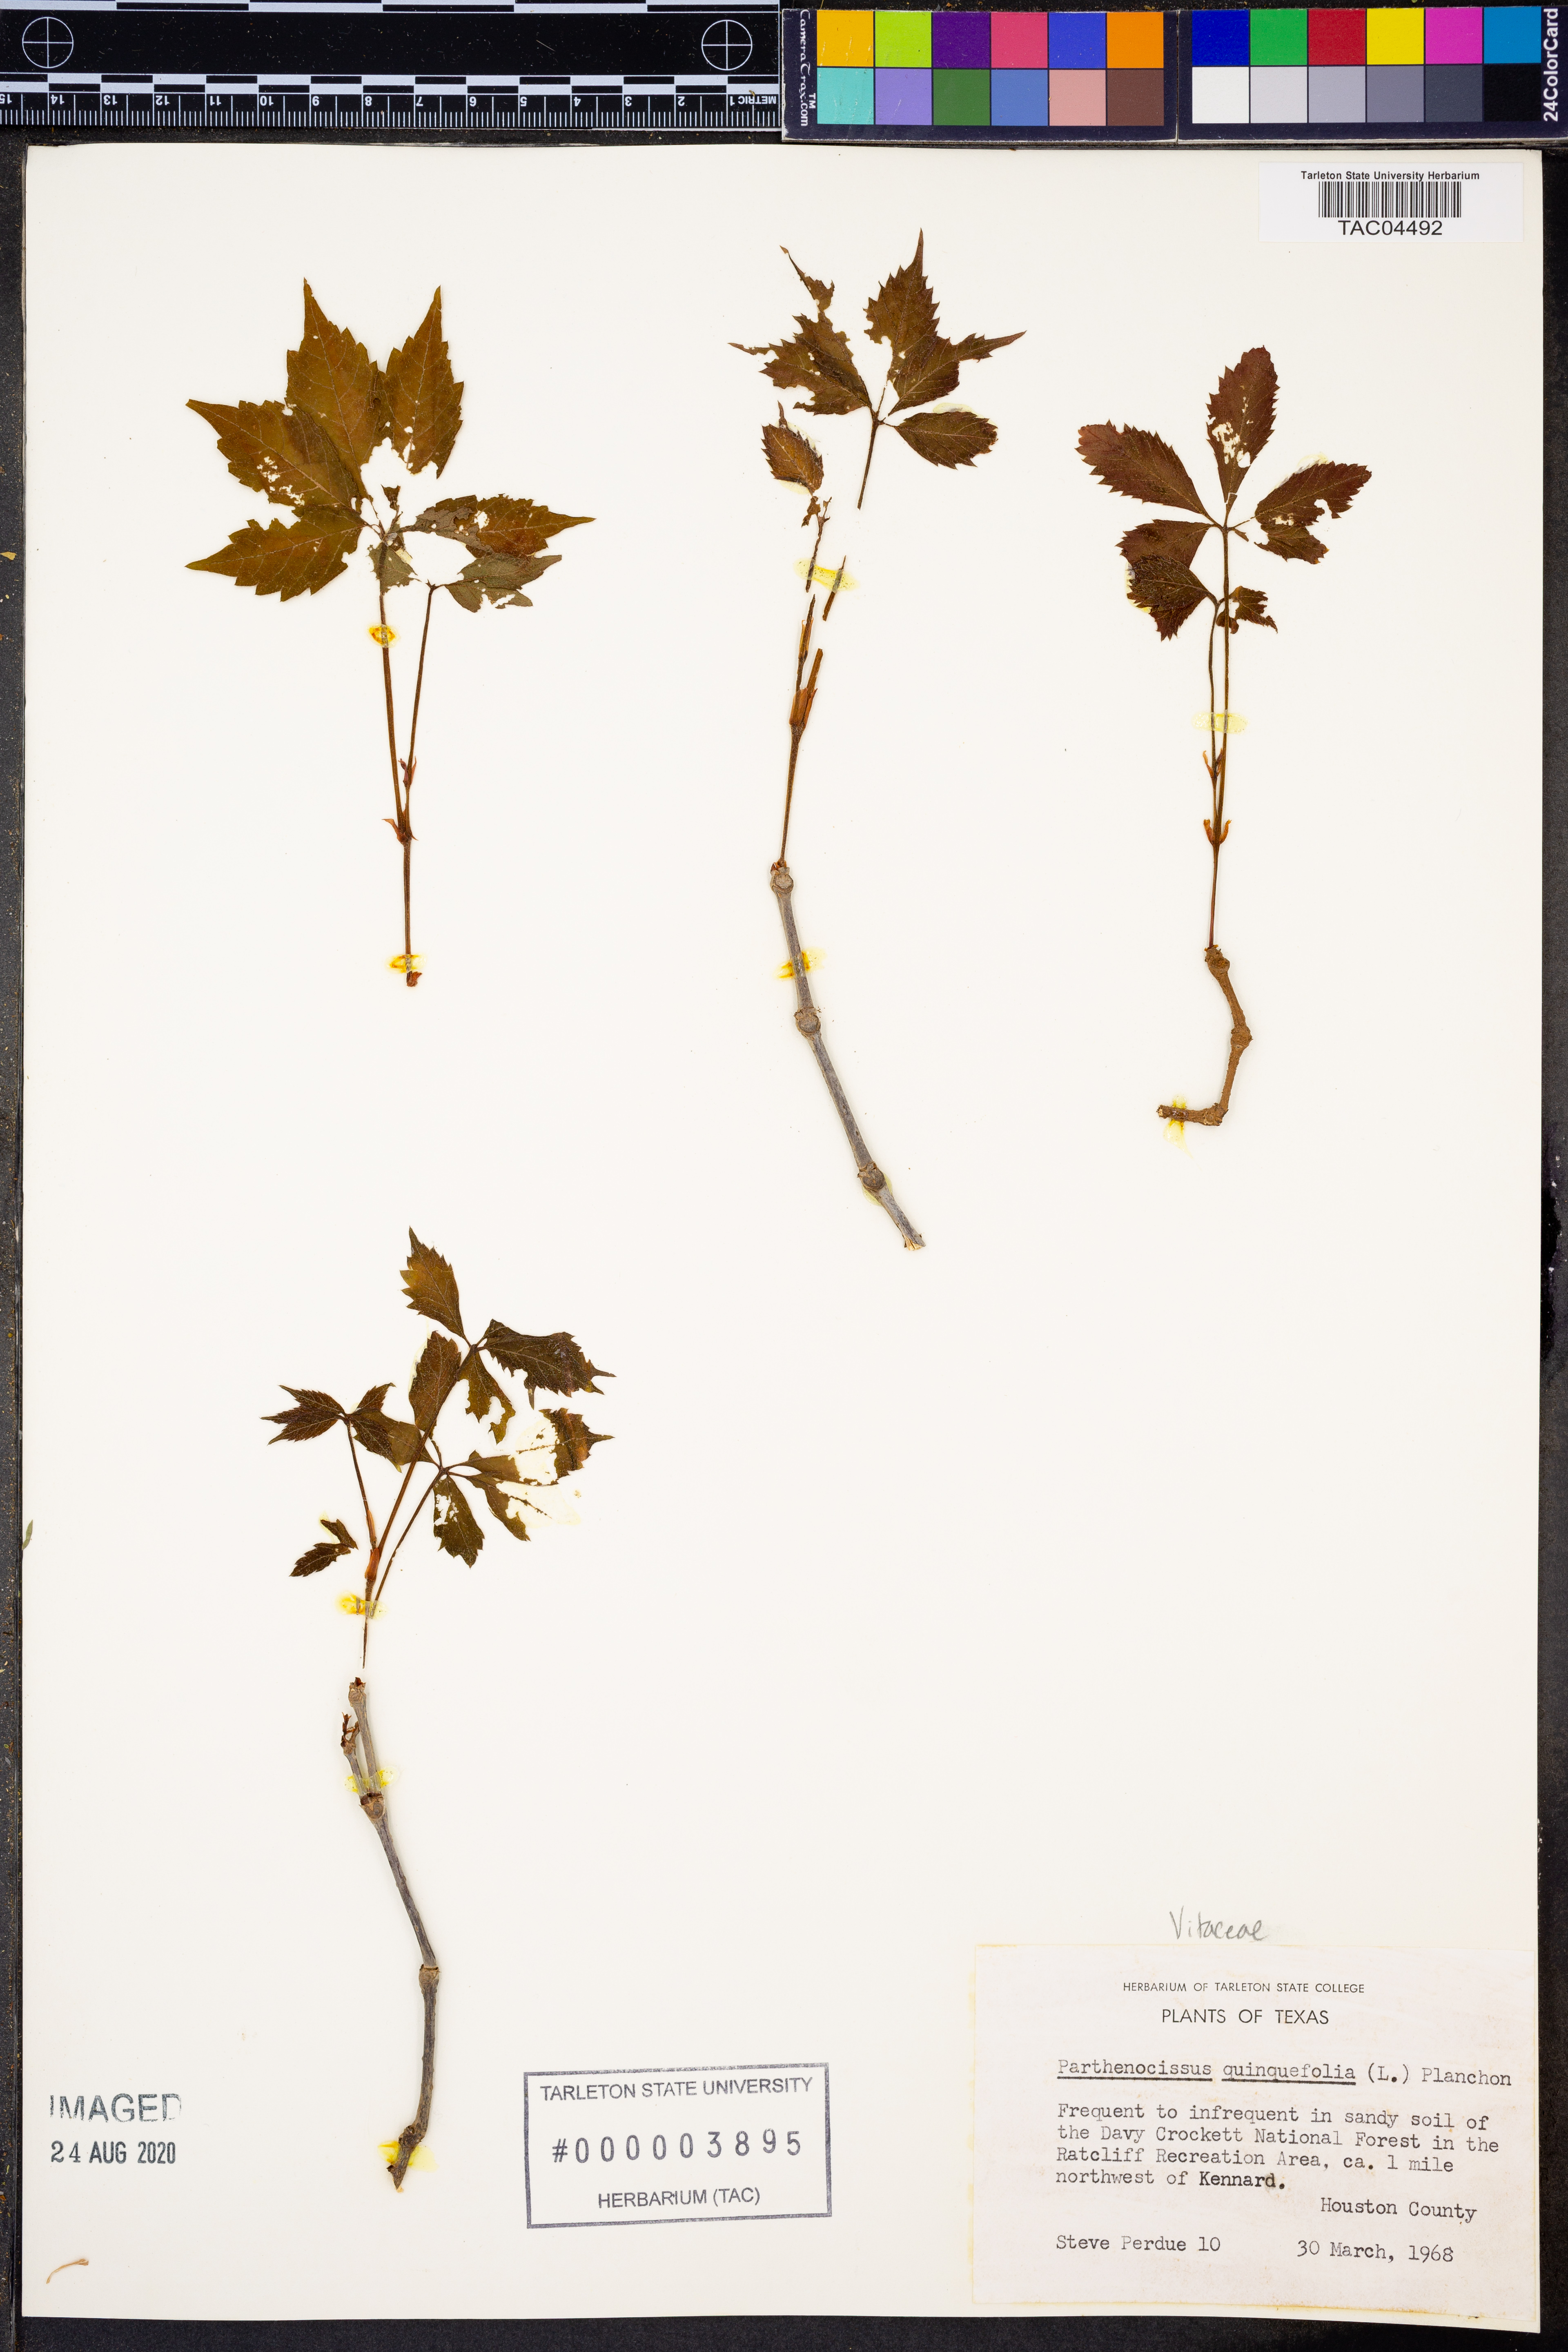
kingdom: Plantae
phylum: Tracheophyta
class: Magnoliopsida
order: Vitales
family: Vitaceae
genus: Parthenocissus
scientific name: Parthenocissus quinquefolia
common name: Virginia-creeper
